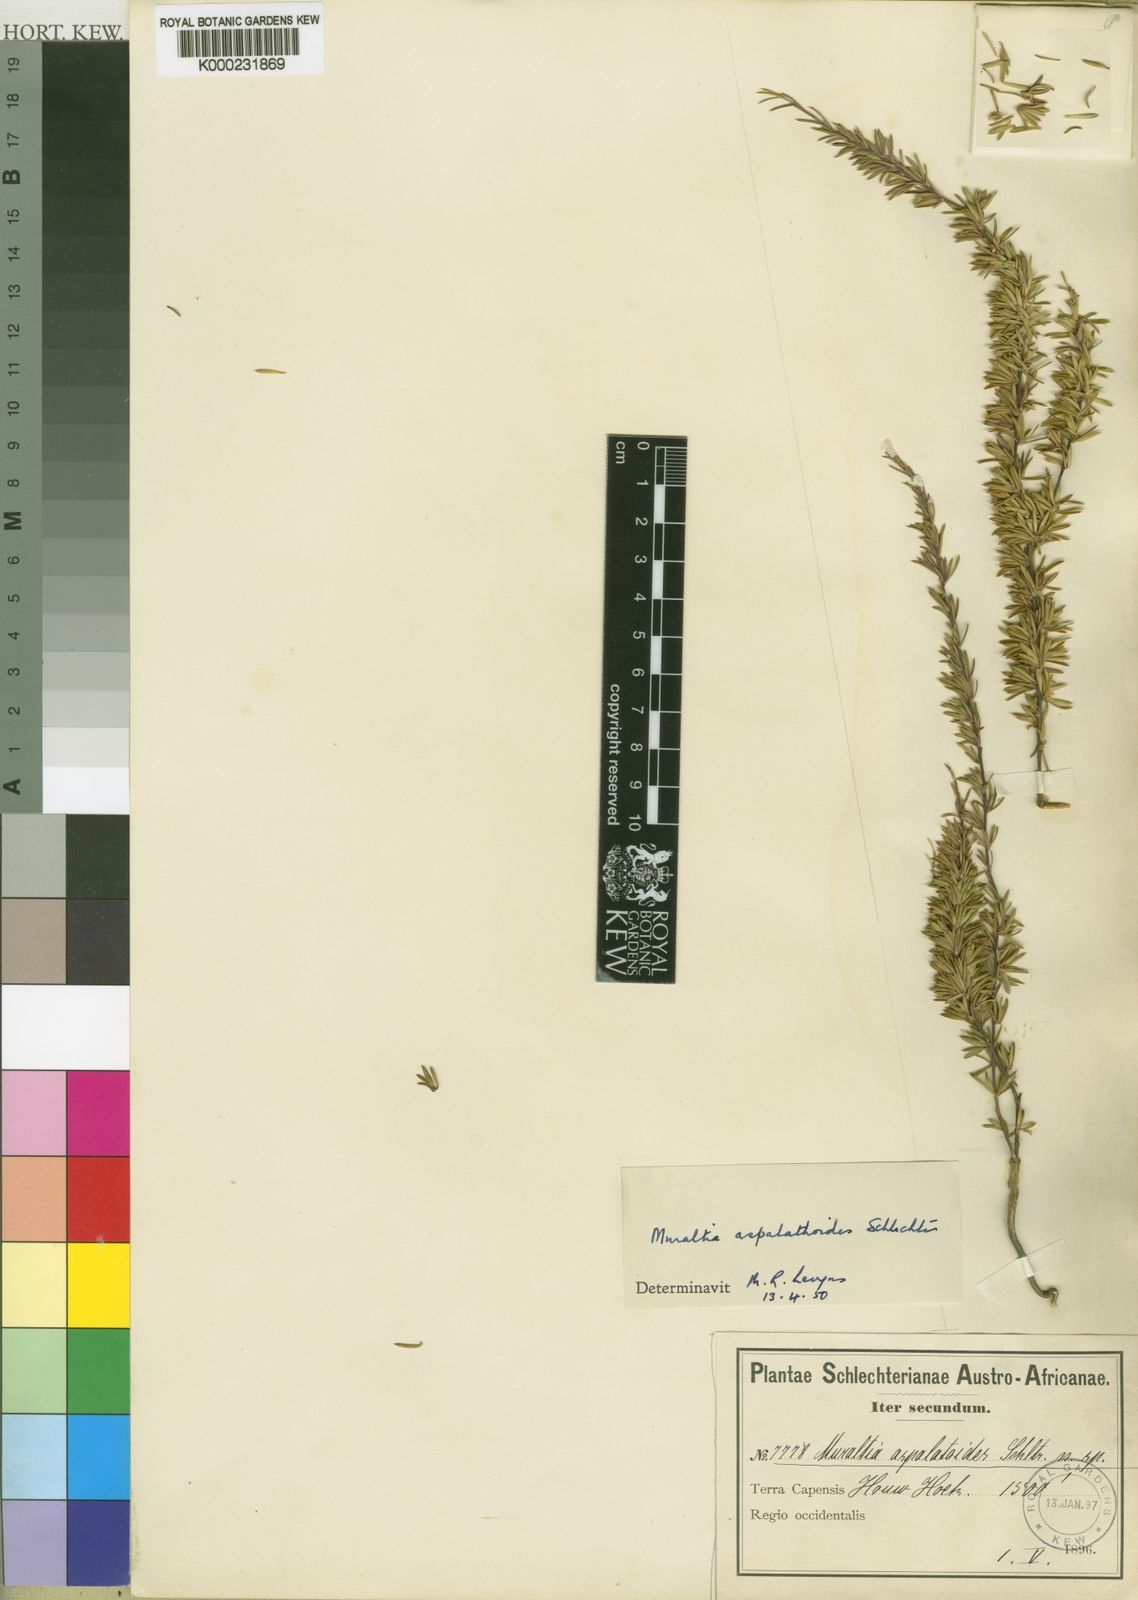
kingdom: Plantae
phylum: Tracheophyta
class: Magnoliopsida
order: Fabales
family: Polygalaceae
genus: Muraltia
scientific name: Muraltia aspalathoides
